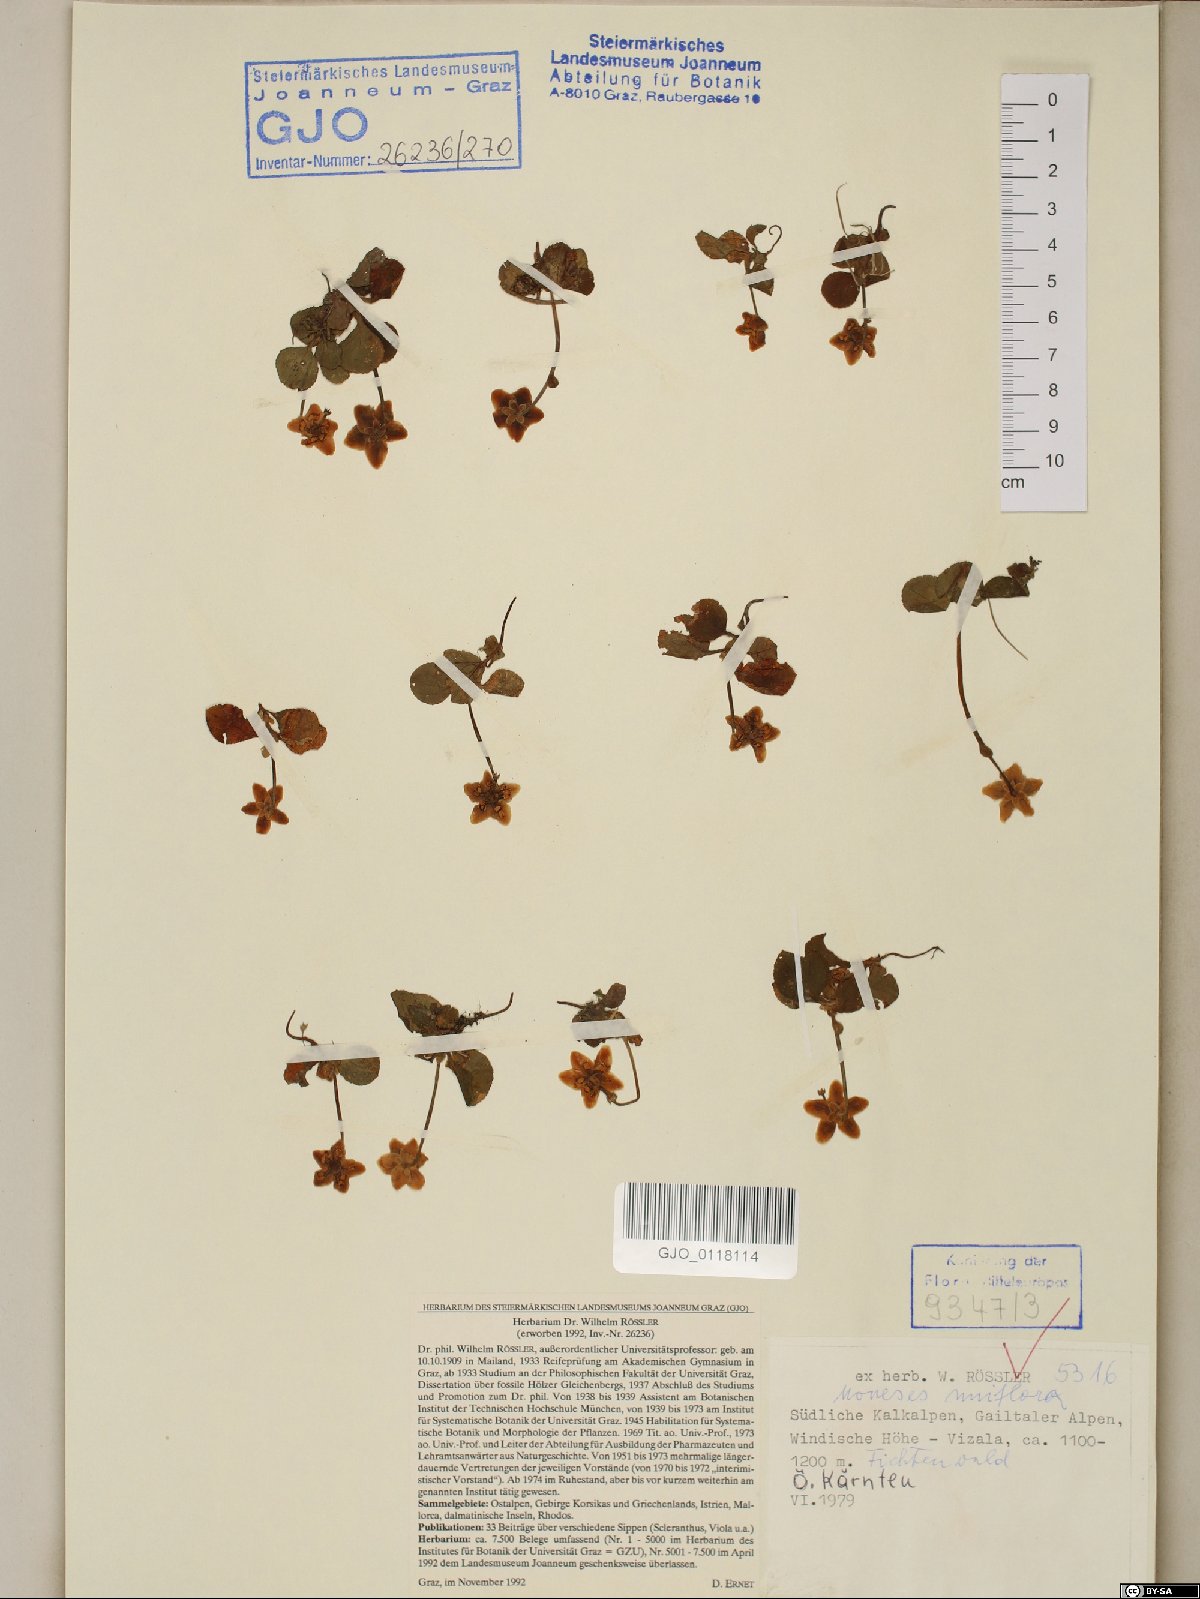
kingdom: Plantae
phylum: Tracheophyta
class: Magnoliopsida
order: Ericales
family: Ericaceae
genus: Moneses
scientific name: Moneses uniflora
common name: One-flowered wintergreen
